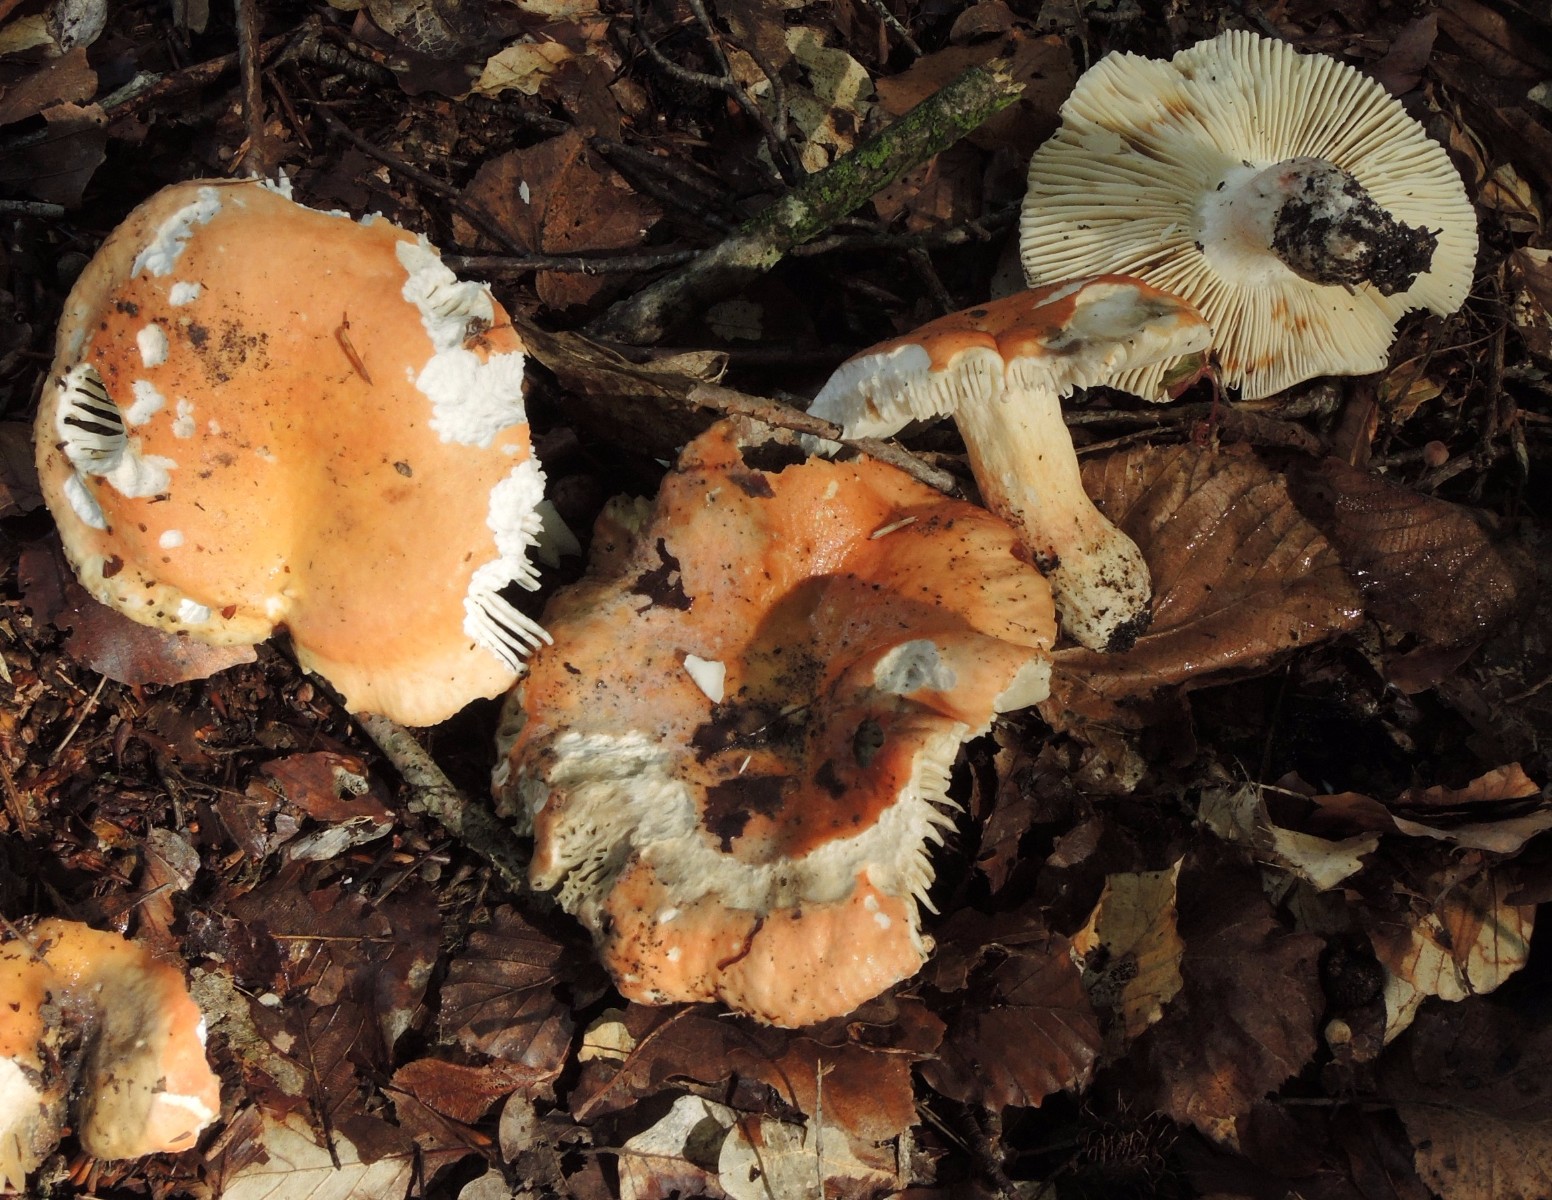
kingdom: Fungi
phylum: Basidiomycota
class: Agaricomycetes
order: Russulales
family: Russulaceae
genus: Russula
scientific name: Russula rosea
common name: fastkødet skørhat
